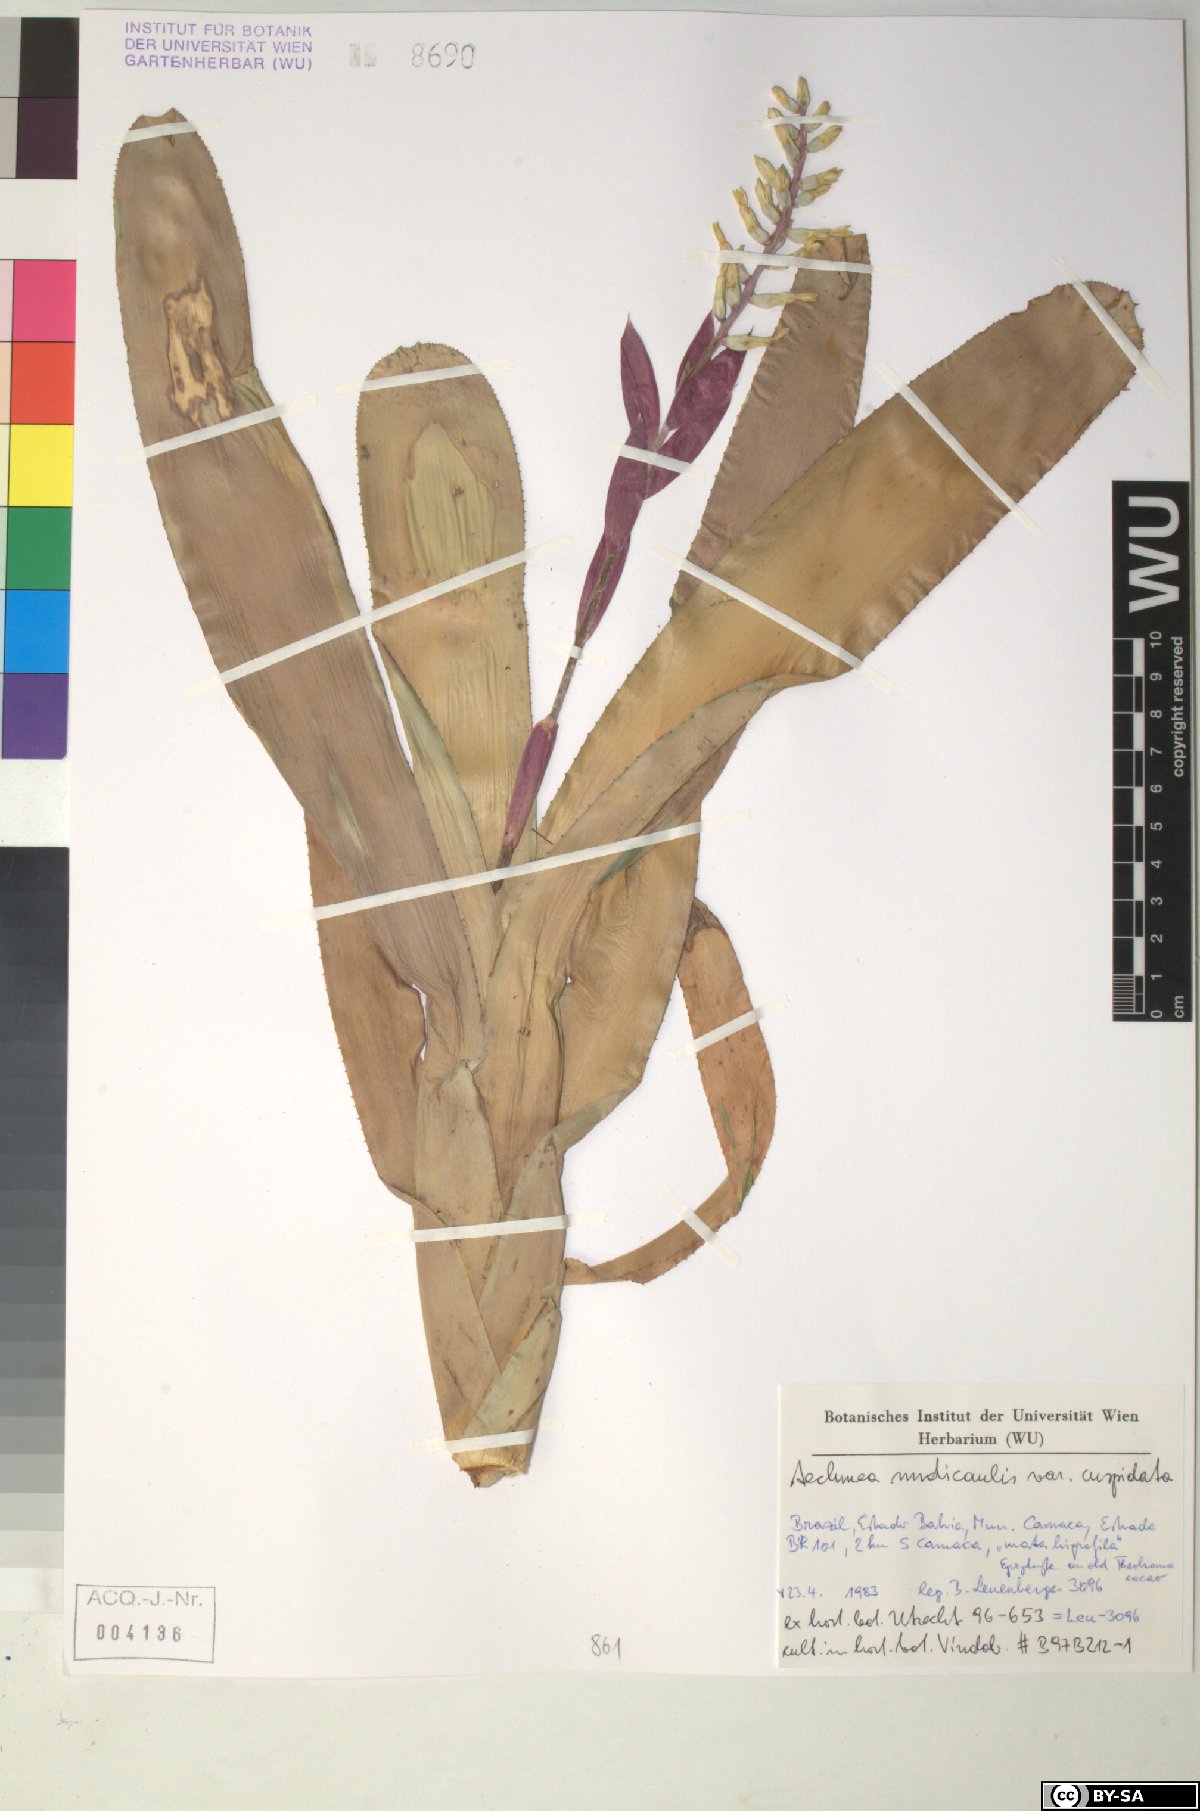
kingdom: Plantae
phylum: Tracheophyta
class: Liliopsida
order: Poales
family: Bromeliaceae
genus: Aechmea
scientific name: Aechmea nudicaulis
